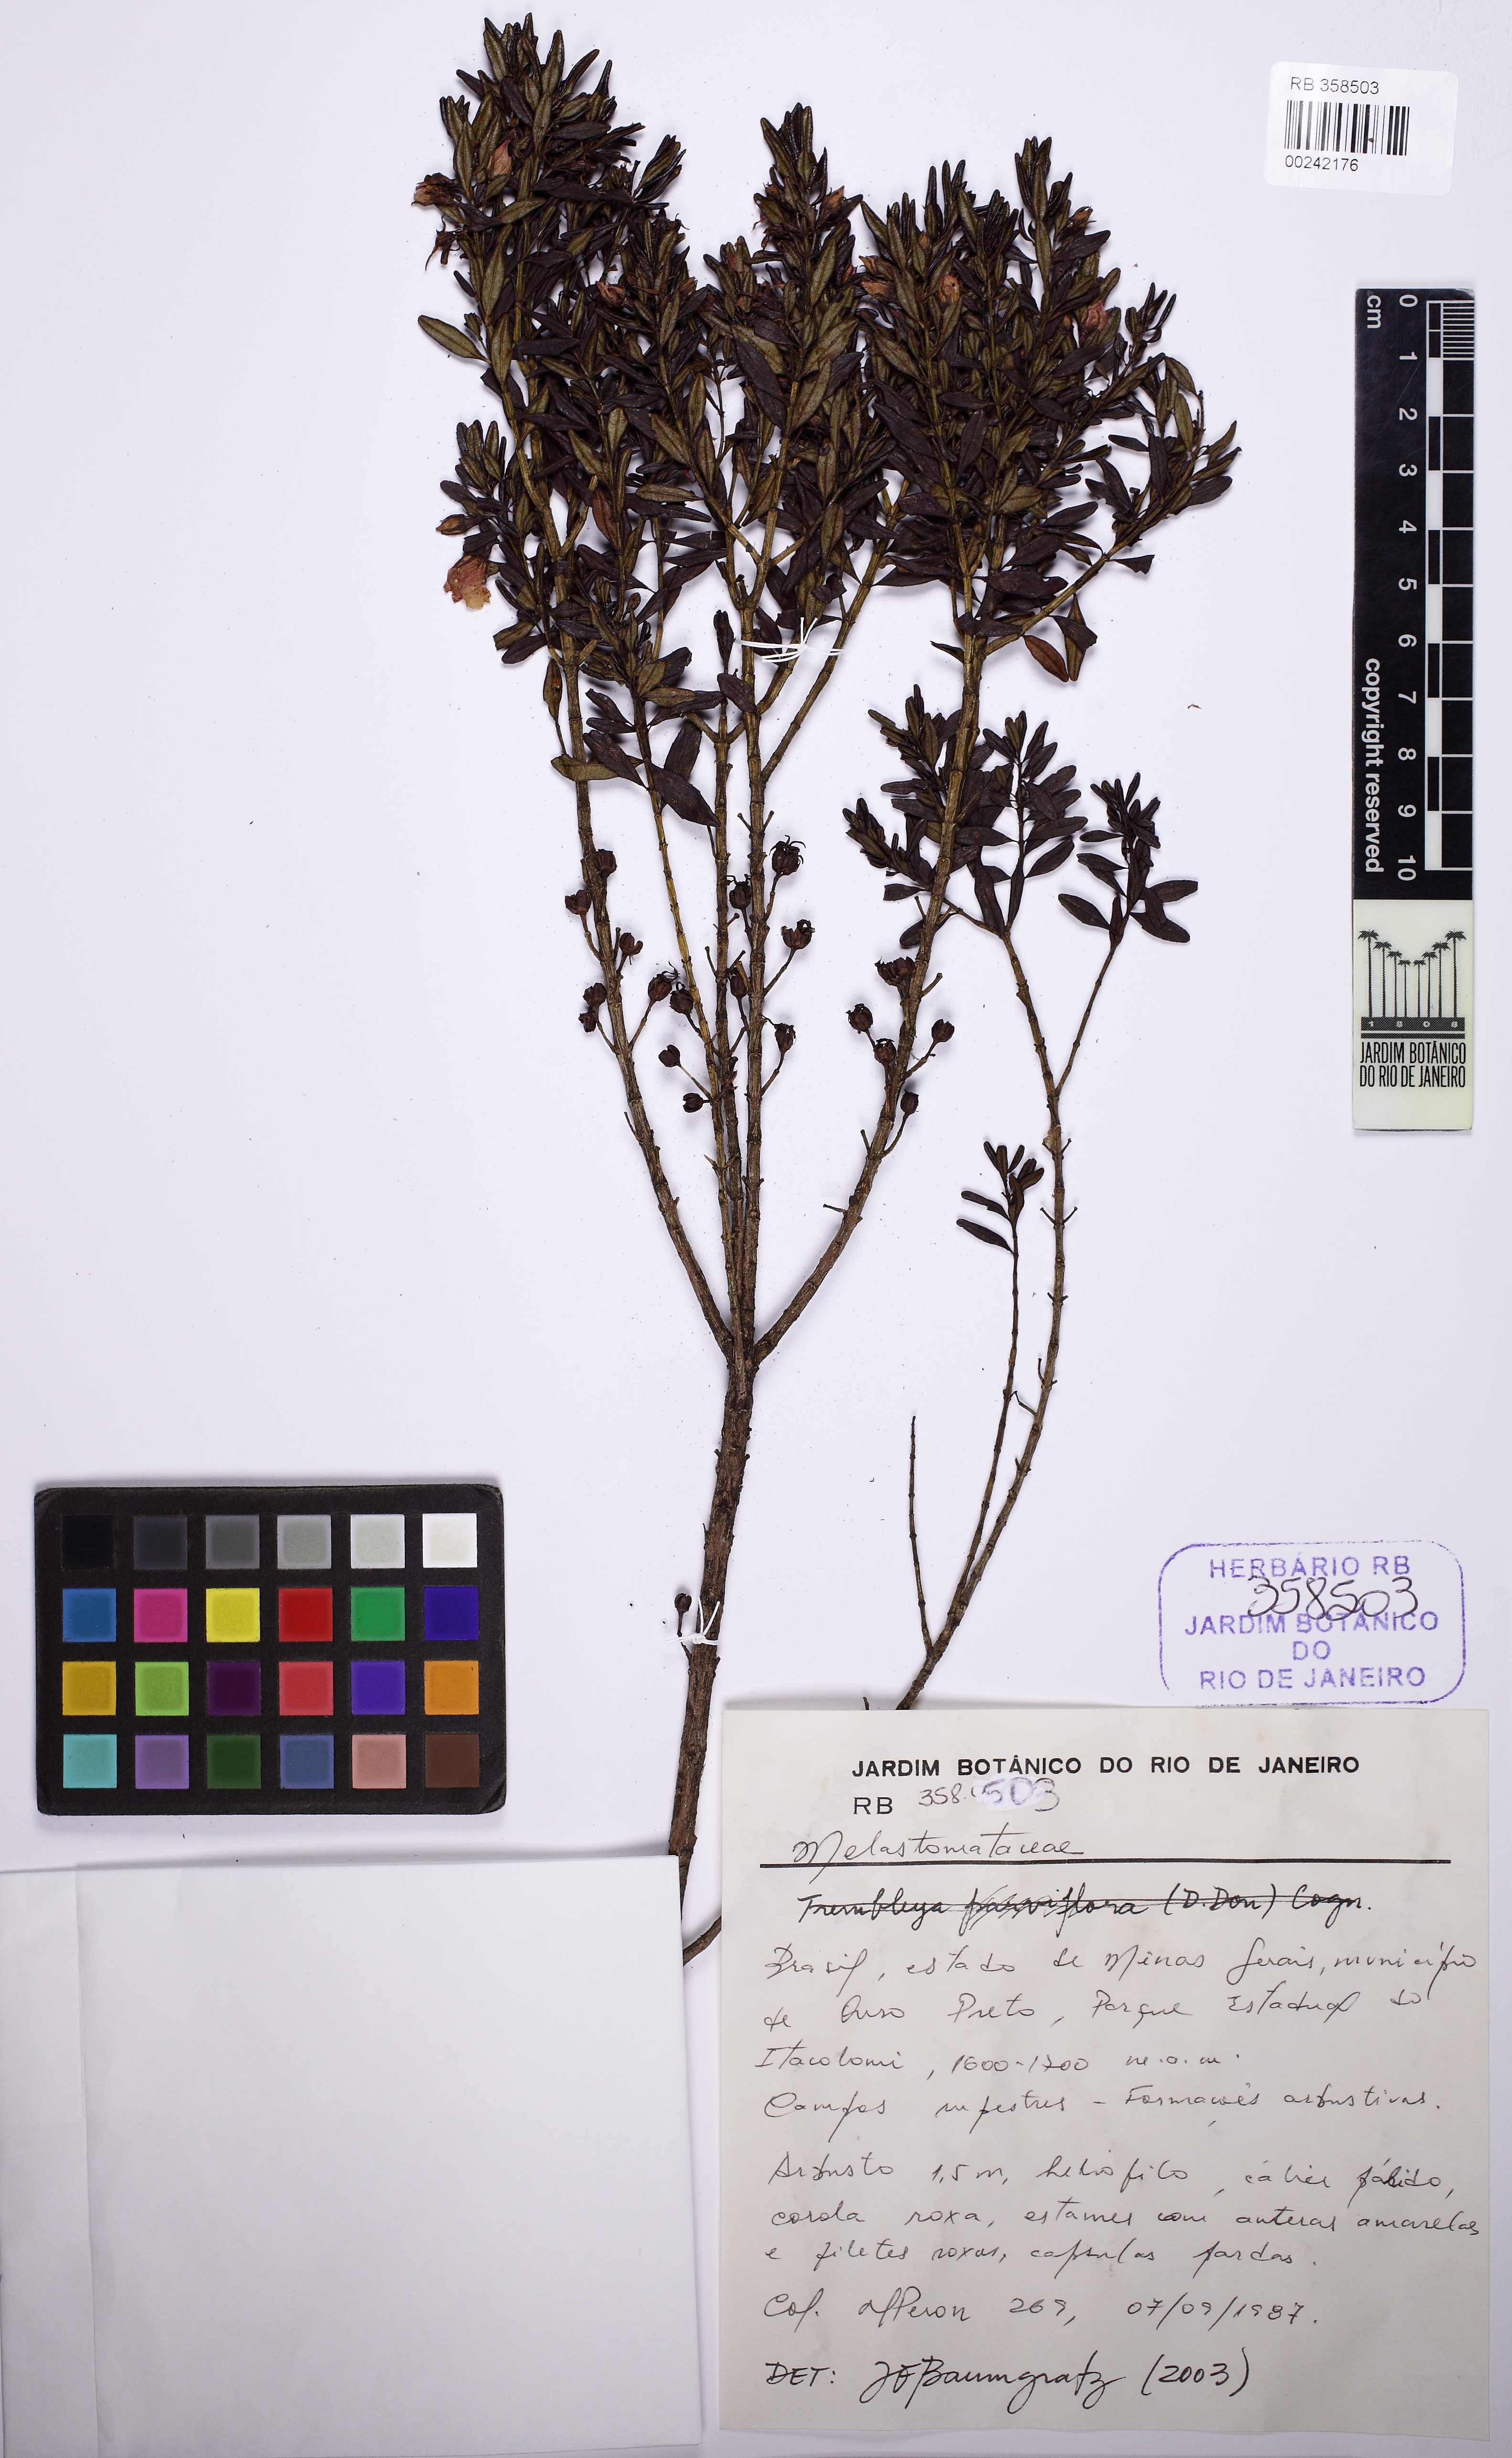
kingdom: Plantae
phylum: Tracheophyta
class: Magnoliopsida
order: Myrtales
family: Melastomataceae
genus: Microlicia
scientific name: Microlicia calycina
